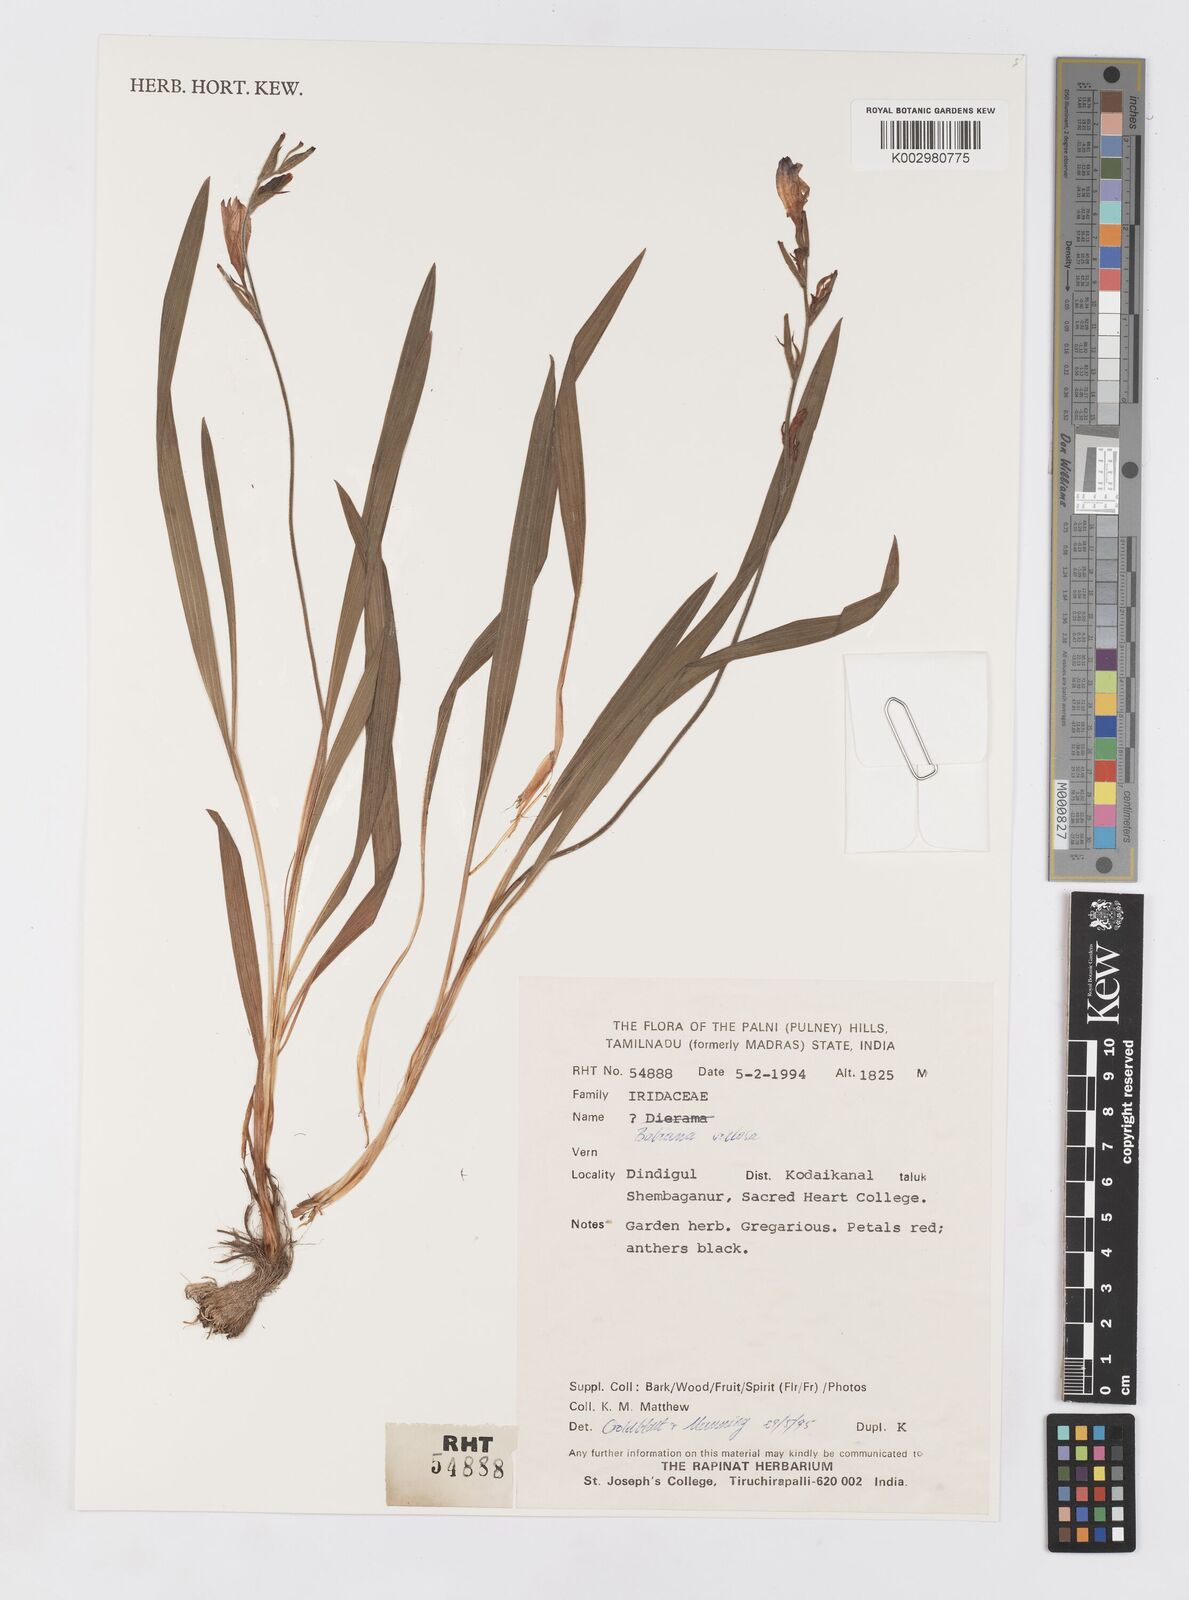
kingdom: Plantae
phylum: Tracheophyta
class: Liliopsida
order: Asparagales
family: Iridaceae
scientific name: Iridaceae
